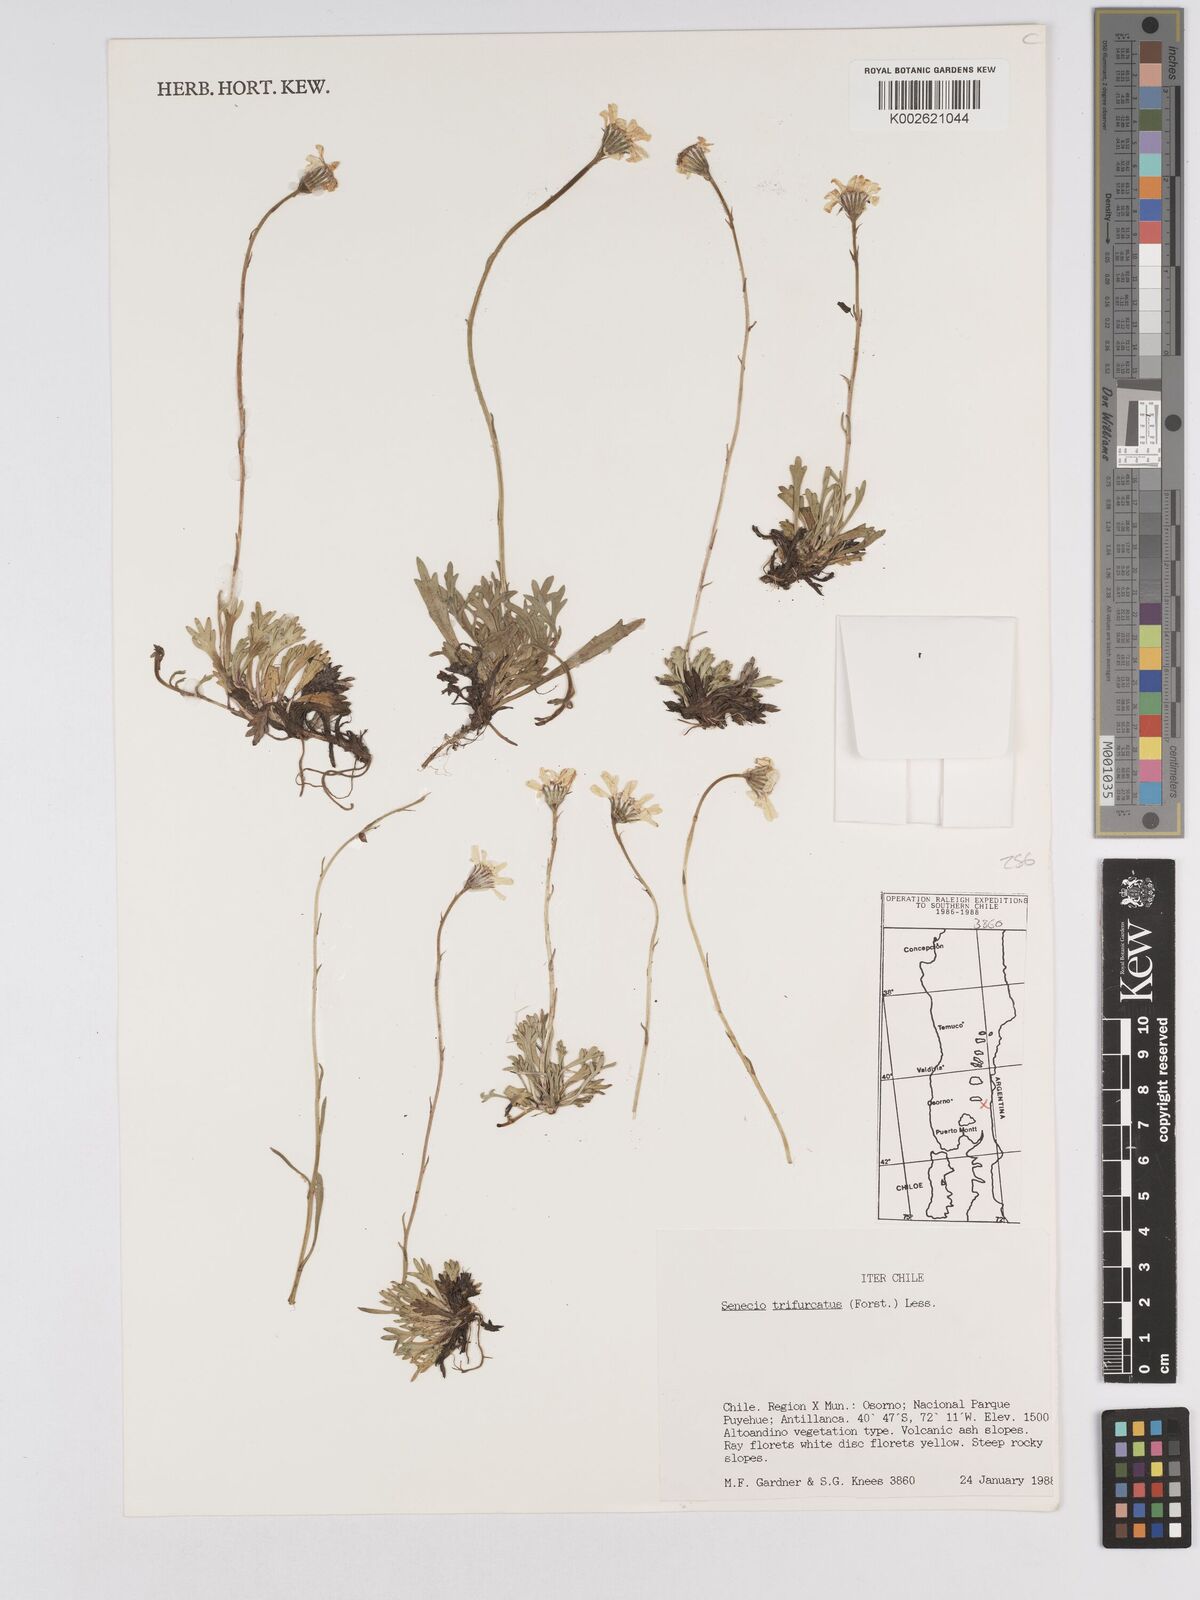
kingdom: Plantae
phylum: Tracheophyta
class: Magnoliopsida
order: Asterales
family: Asteraceae
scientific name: Asteraceae
